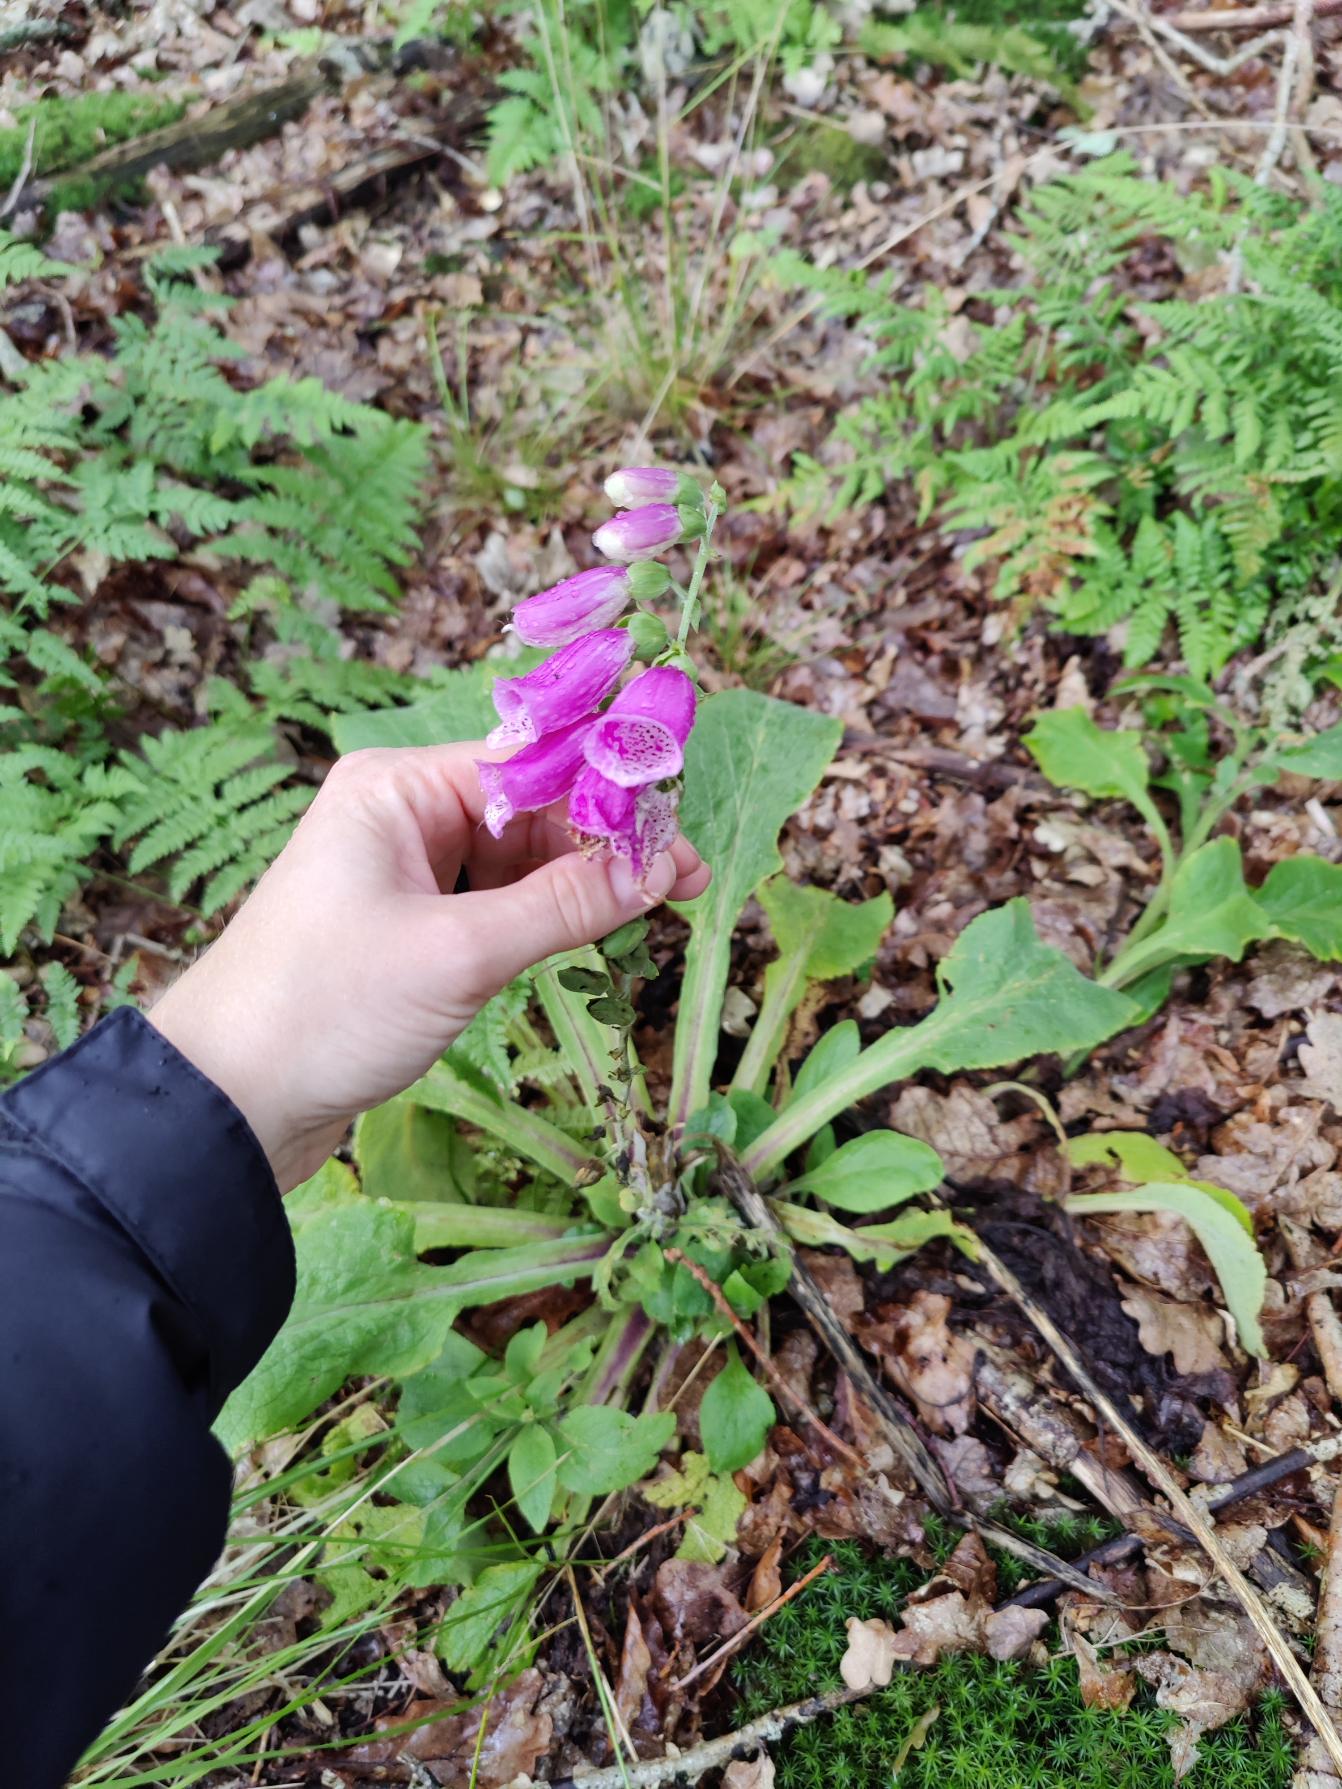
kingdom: Plantae
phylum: Tracheophyta
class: Magnoliopsida
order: Lamiales
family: Plantaginaceae
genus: Digitalis
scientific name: Digitalis purpurea
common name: Almindelig fingerbøl
